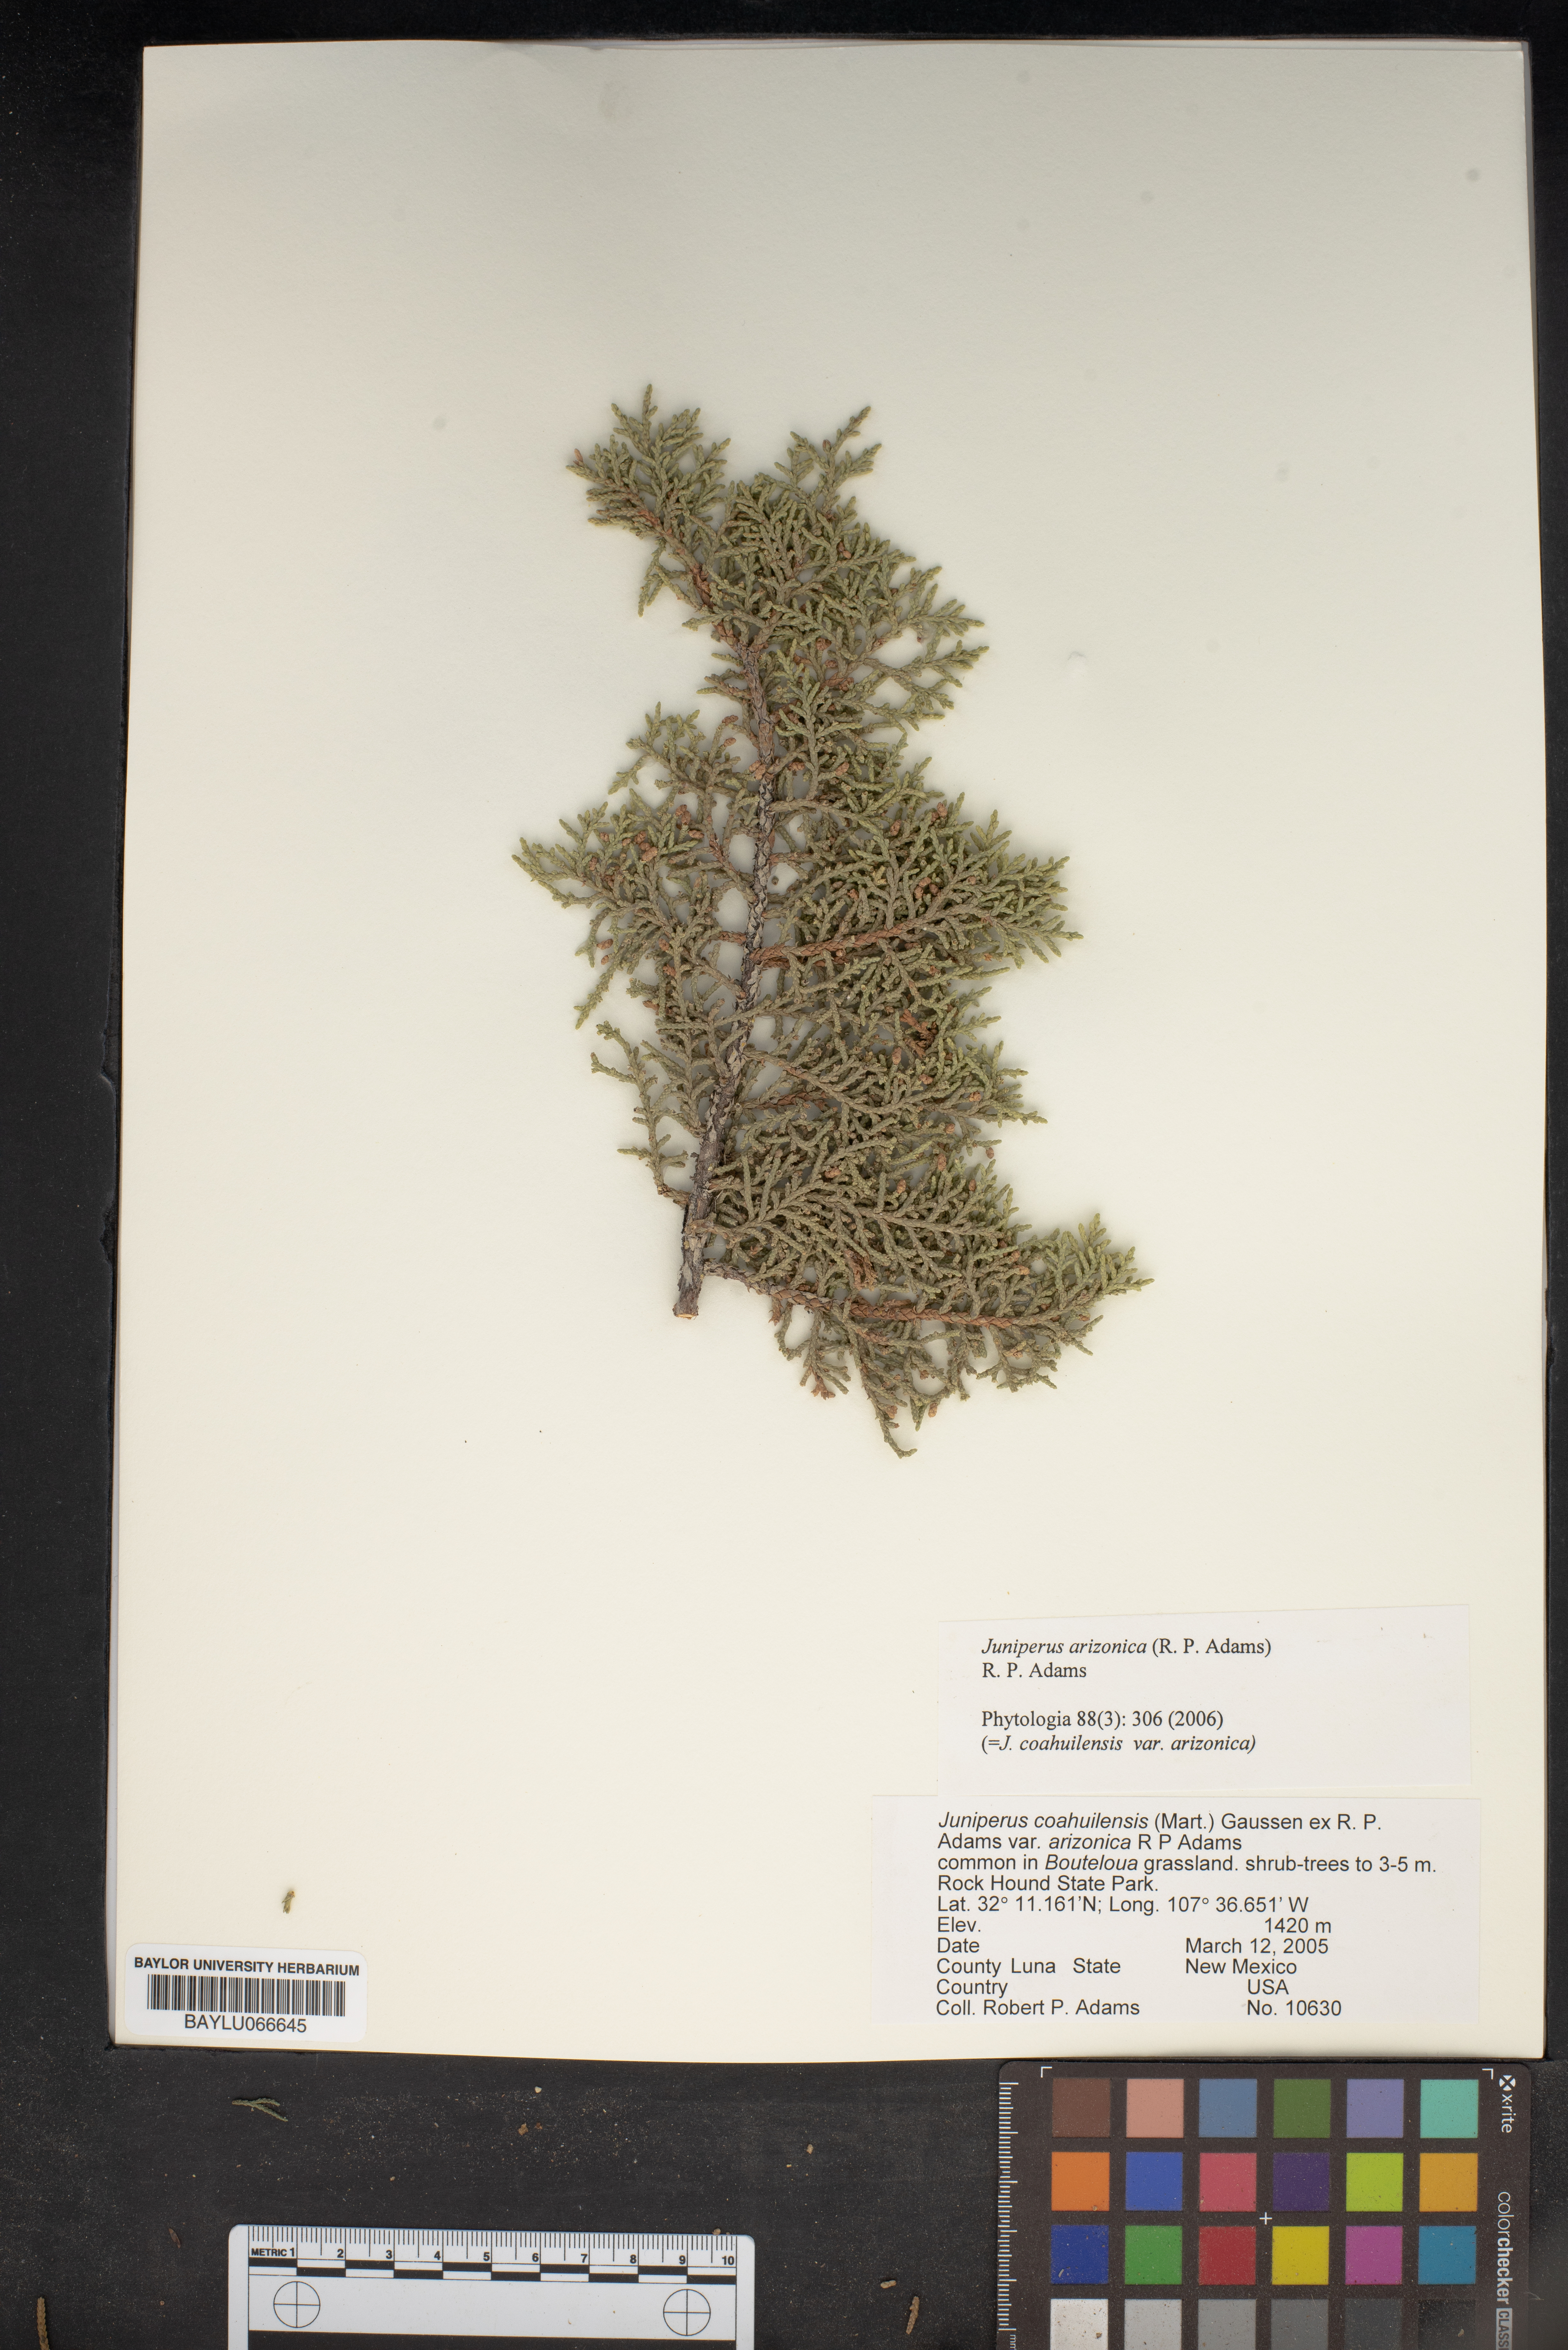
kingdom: Plantae
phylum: Tracheophyta
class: Pinopsida
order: Pinales
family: Cupressaceae
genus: Juniperus
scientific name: Juniperus arizonica
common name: Arizona juniper
